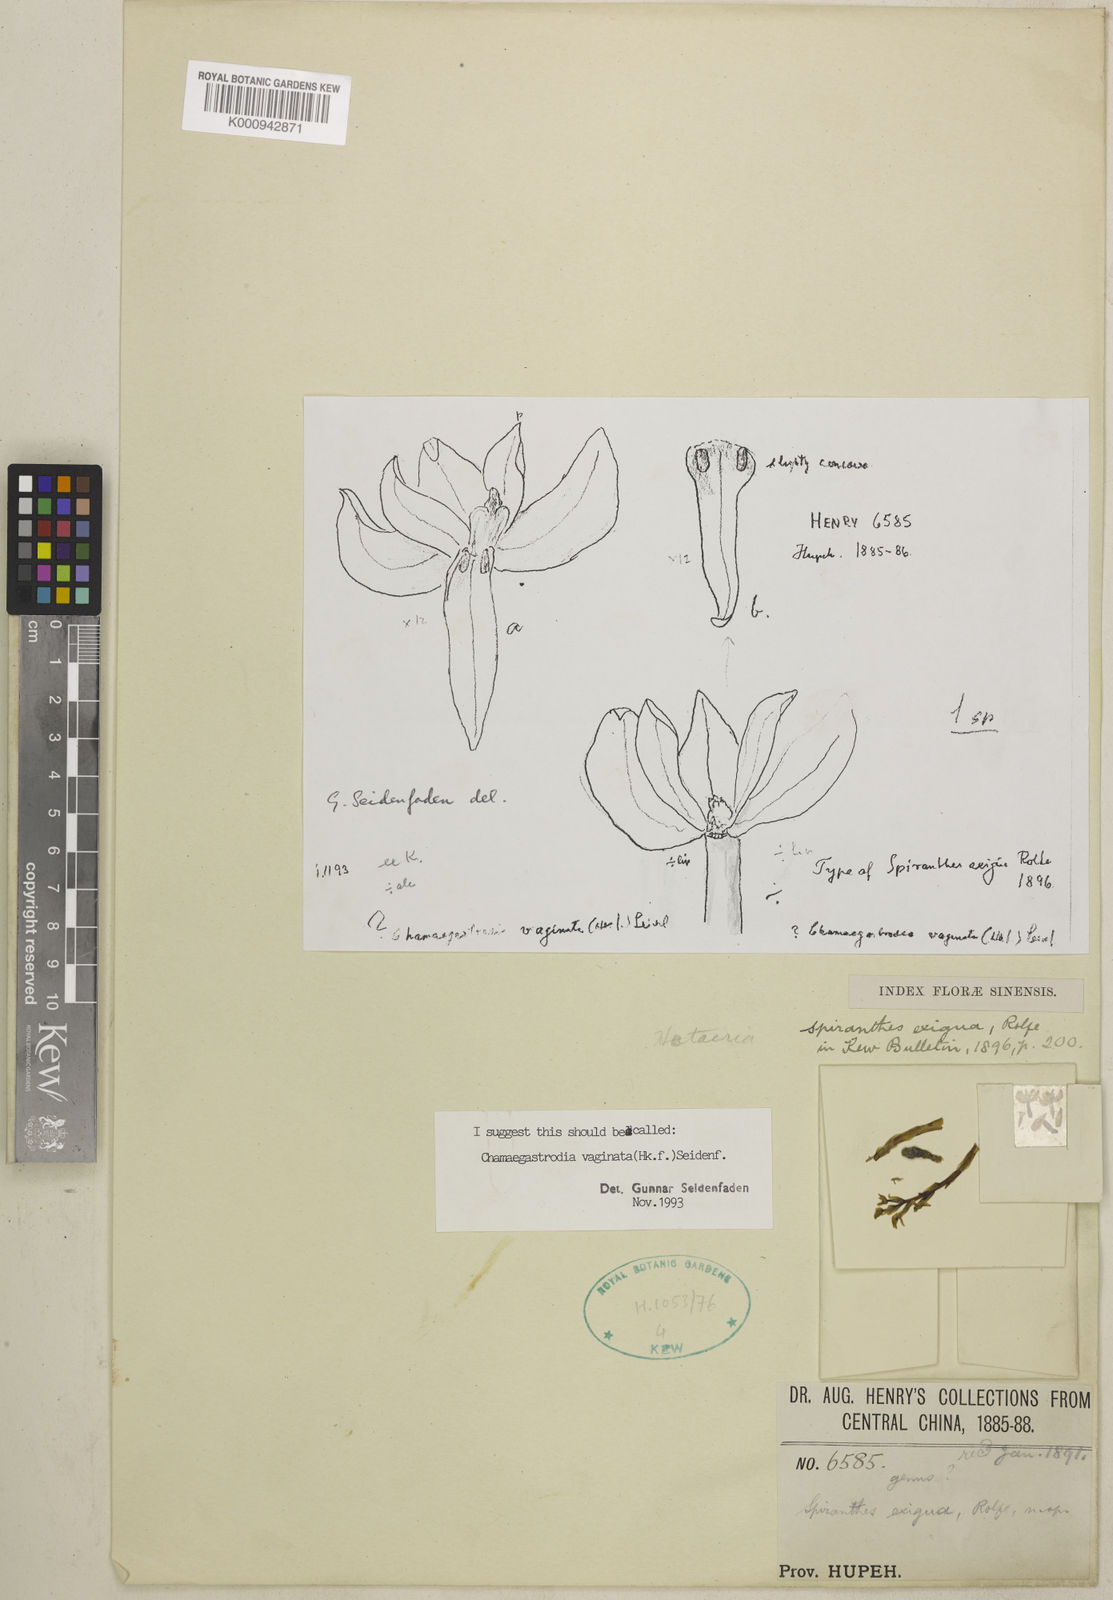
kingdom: Plantae
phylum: Tracheophyta
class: Liliopsida
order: Asparagales
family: Orchidaceae
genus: Chamaegastrodia
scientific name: Chamaegastrodia vaginata
